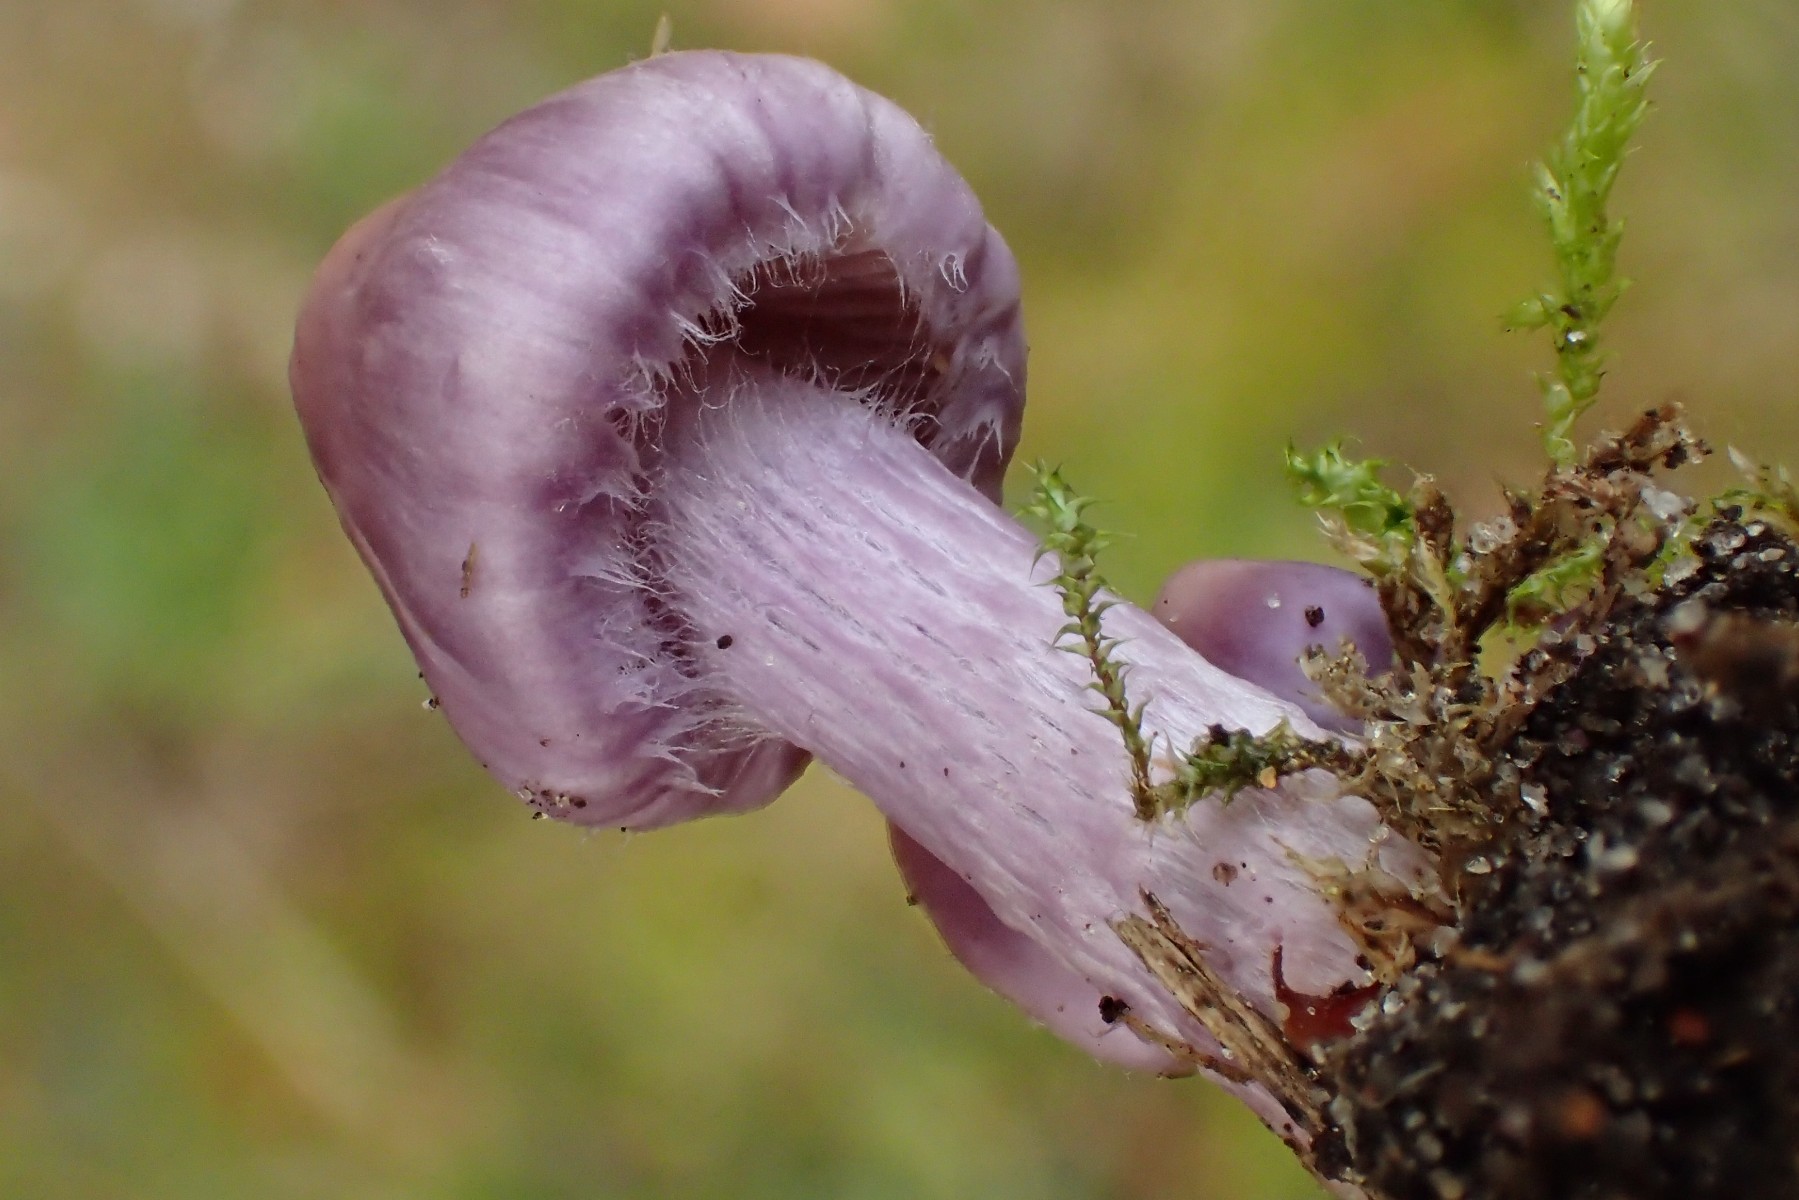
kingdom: Fungi
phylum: Basidiomycota
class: Agaricomycetes
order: Agaricales
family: Inocybaceae
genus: Inocybe
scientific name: Inocybe geophylla
